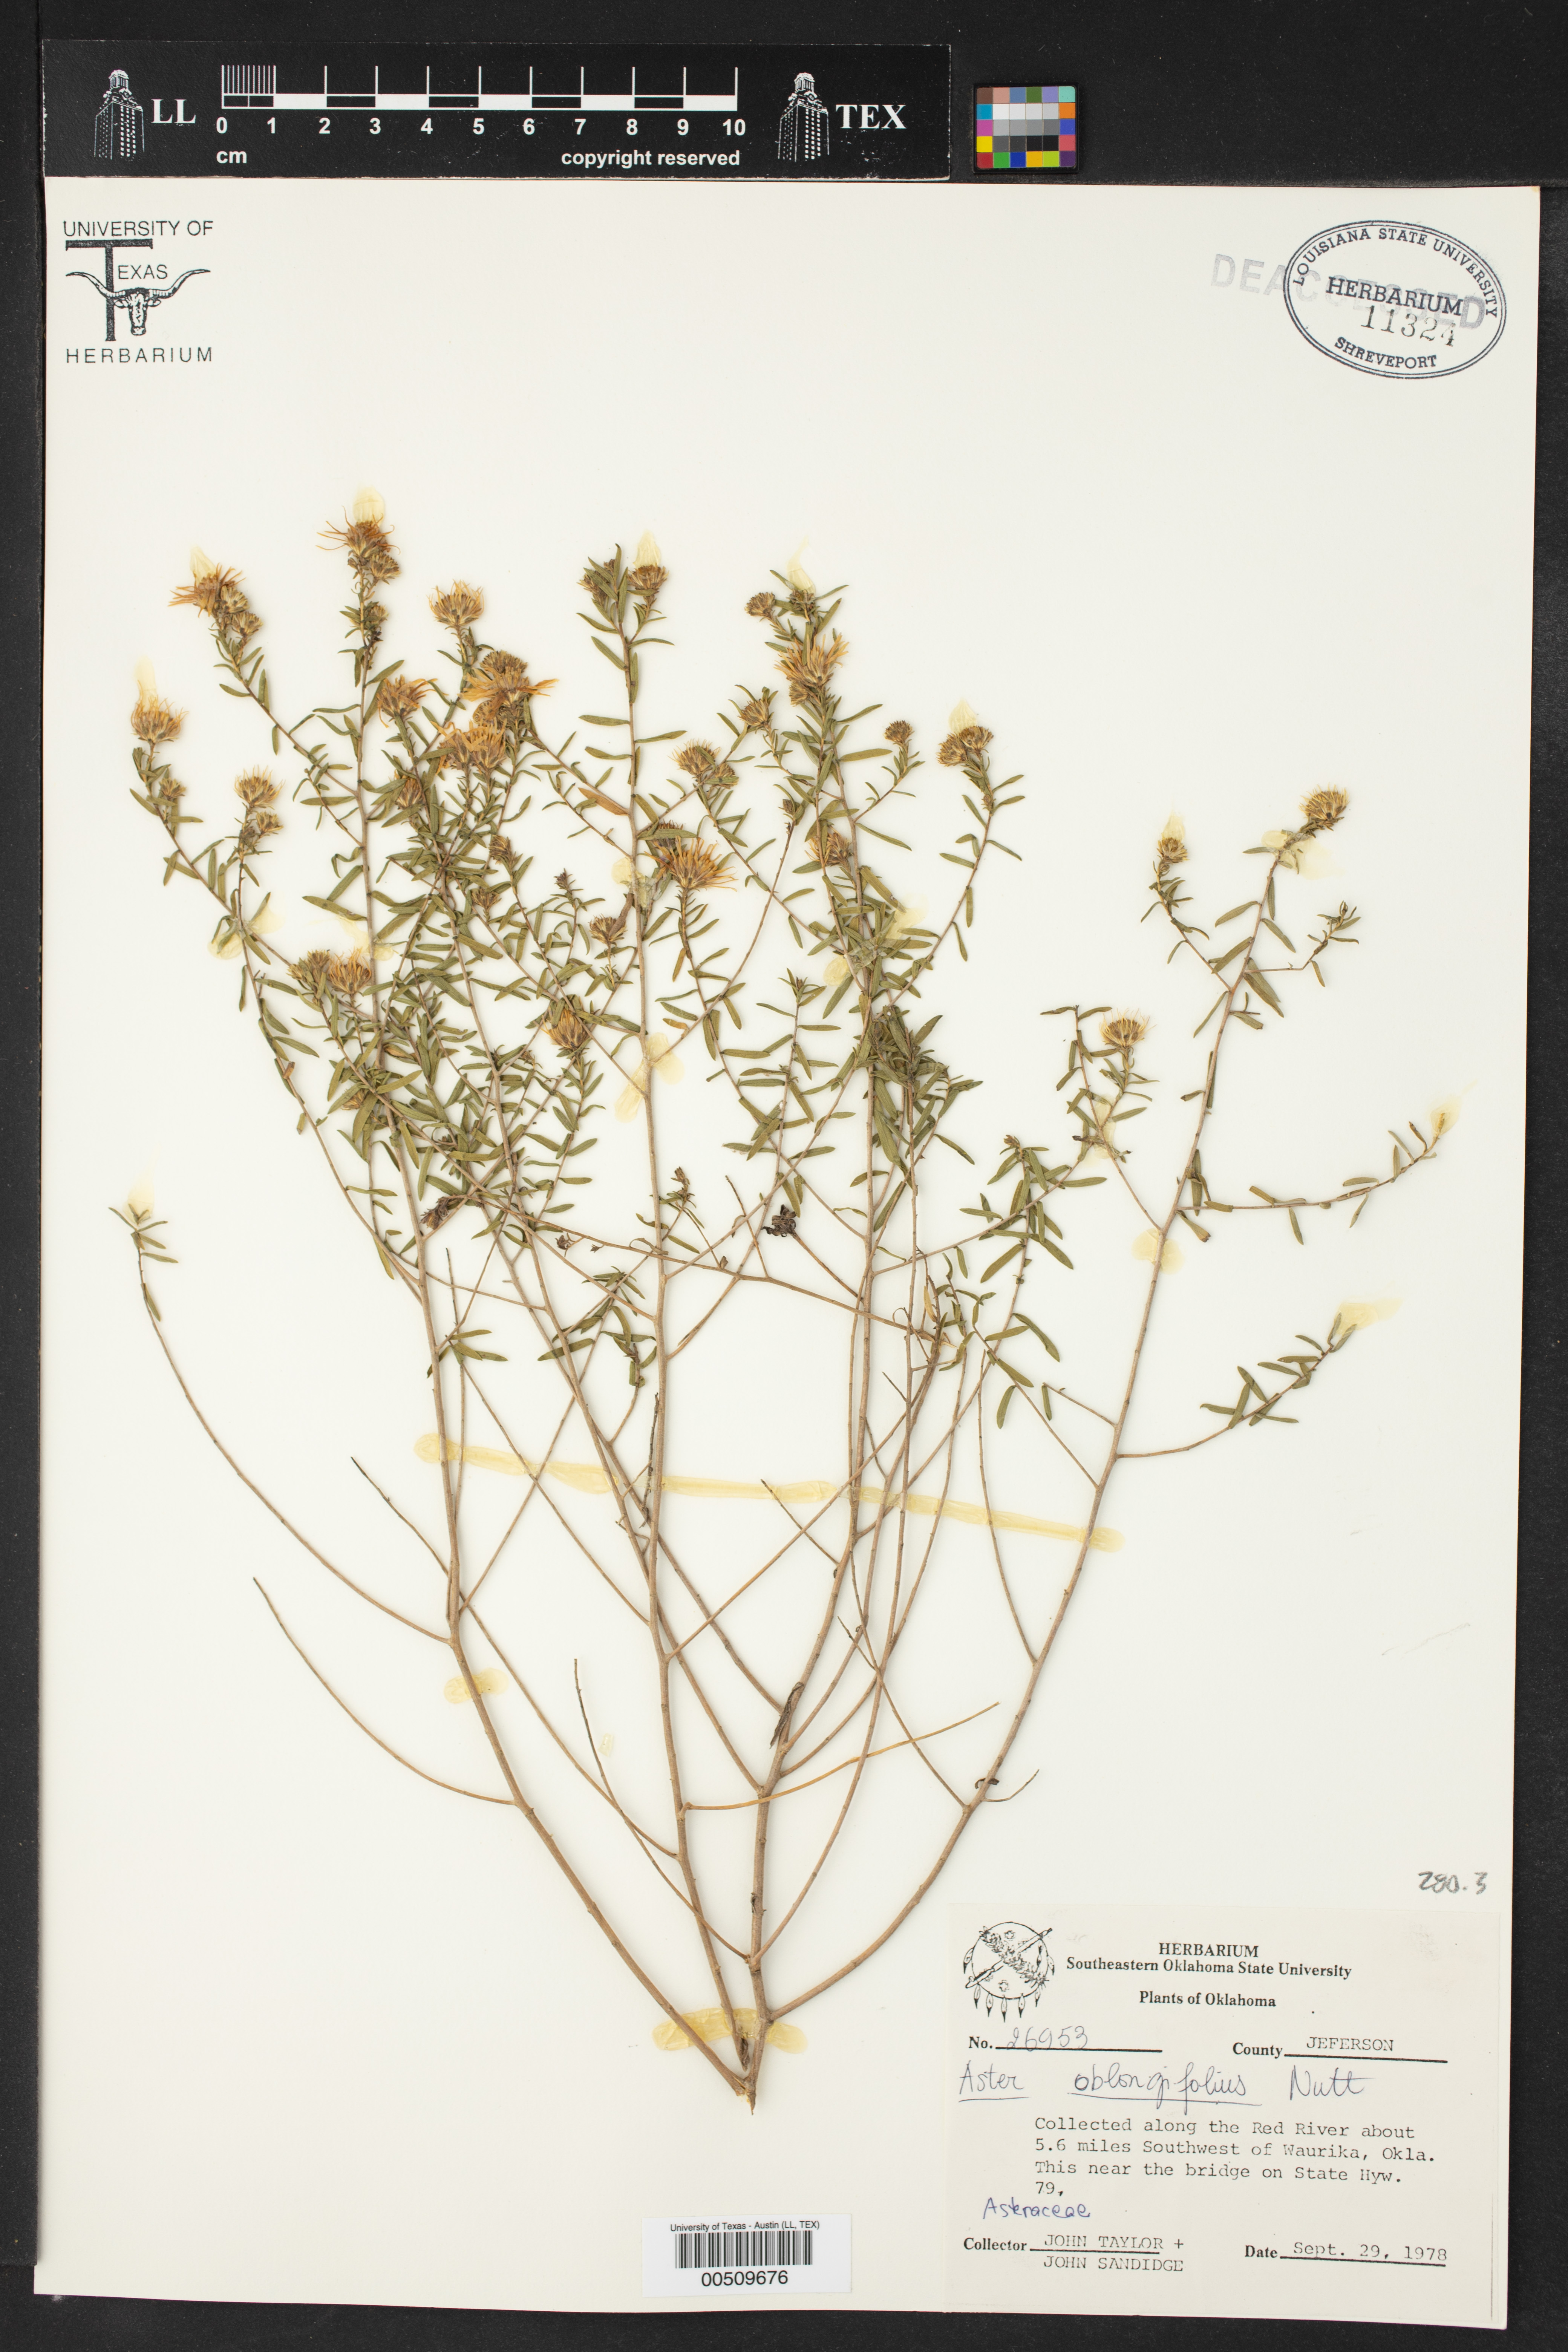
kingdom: Plantae
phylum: Tracheophyta
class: Magnoliopsida
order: Asterales
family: Asteraceae
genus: Symphyotrichum
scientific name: Symphyotrichum oblongifolium
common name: Aromatic aster
